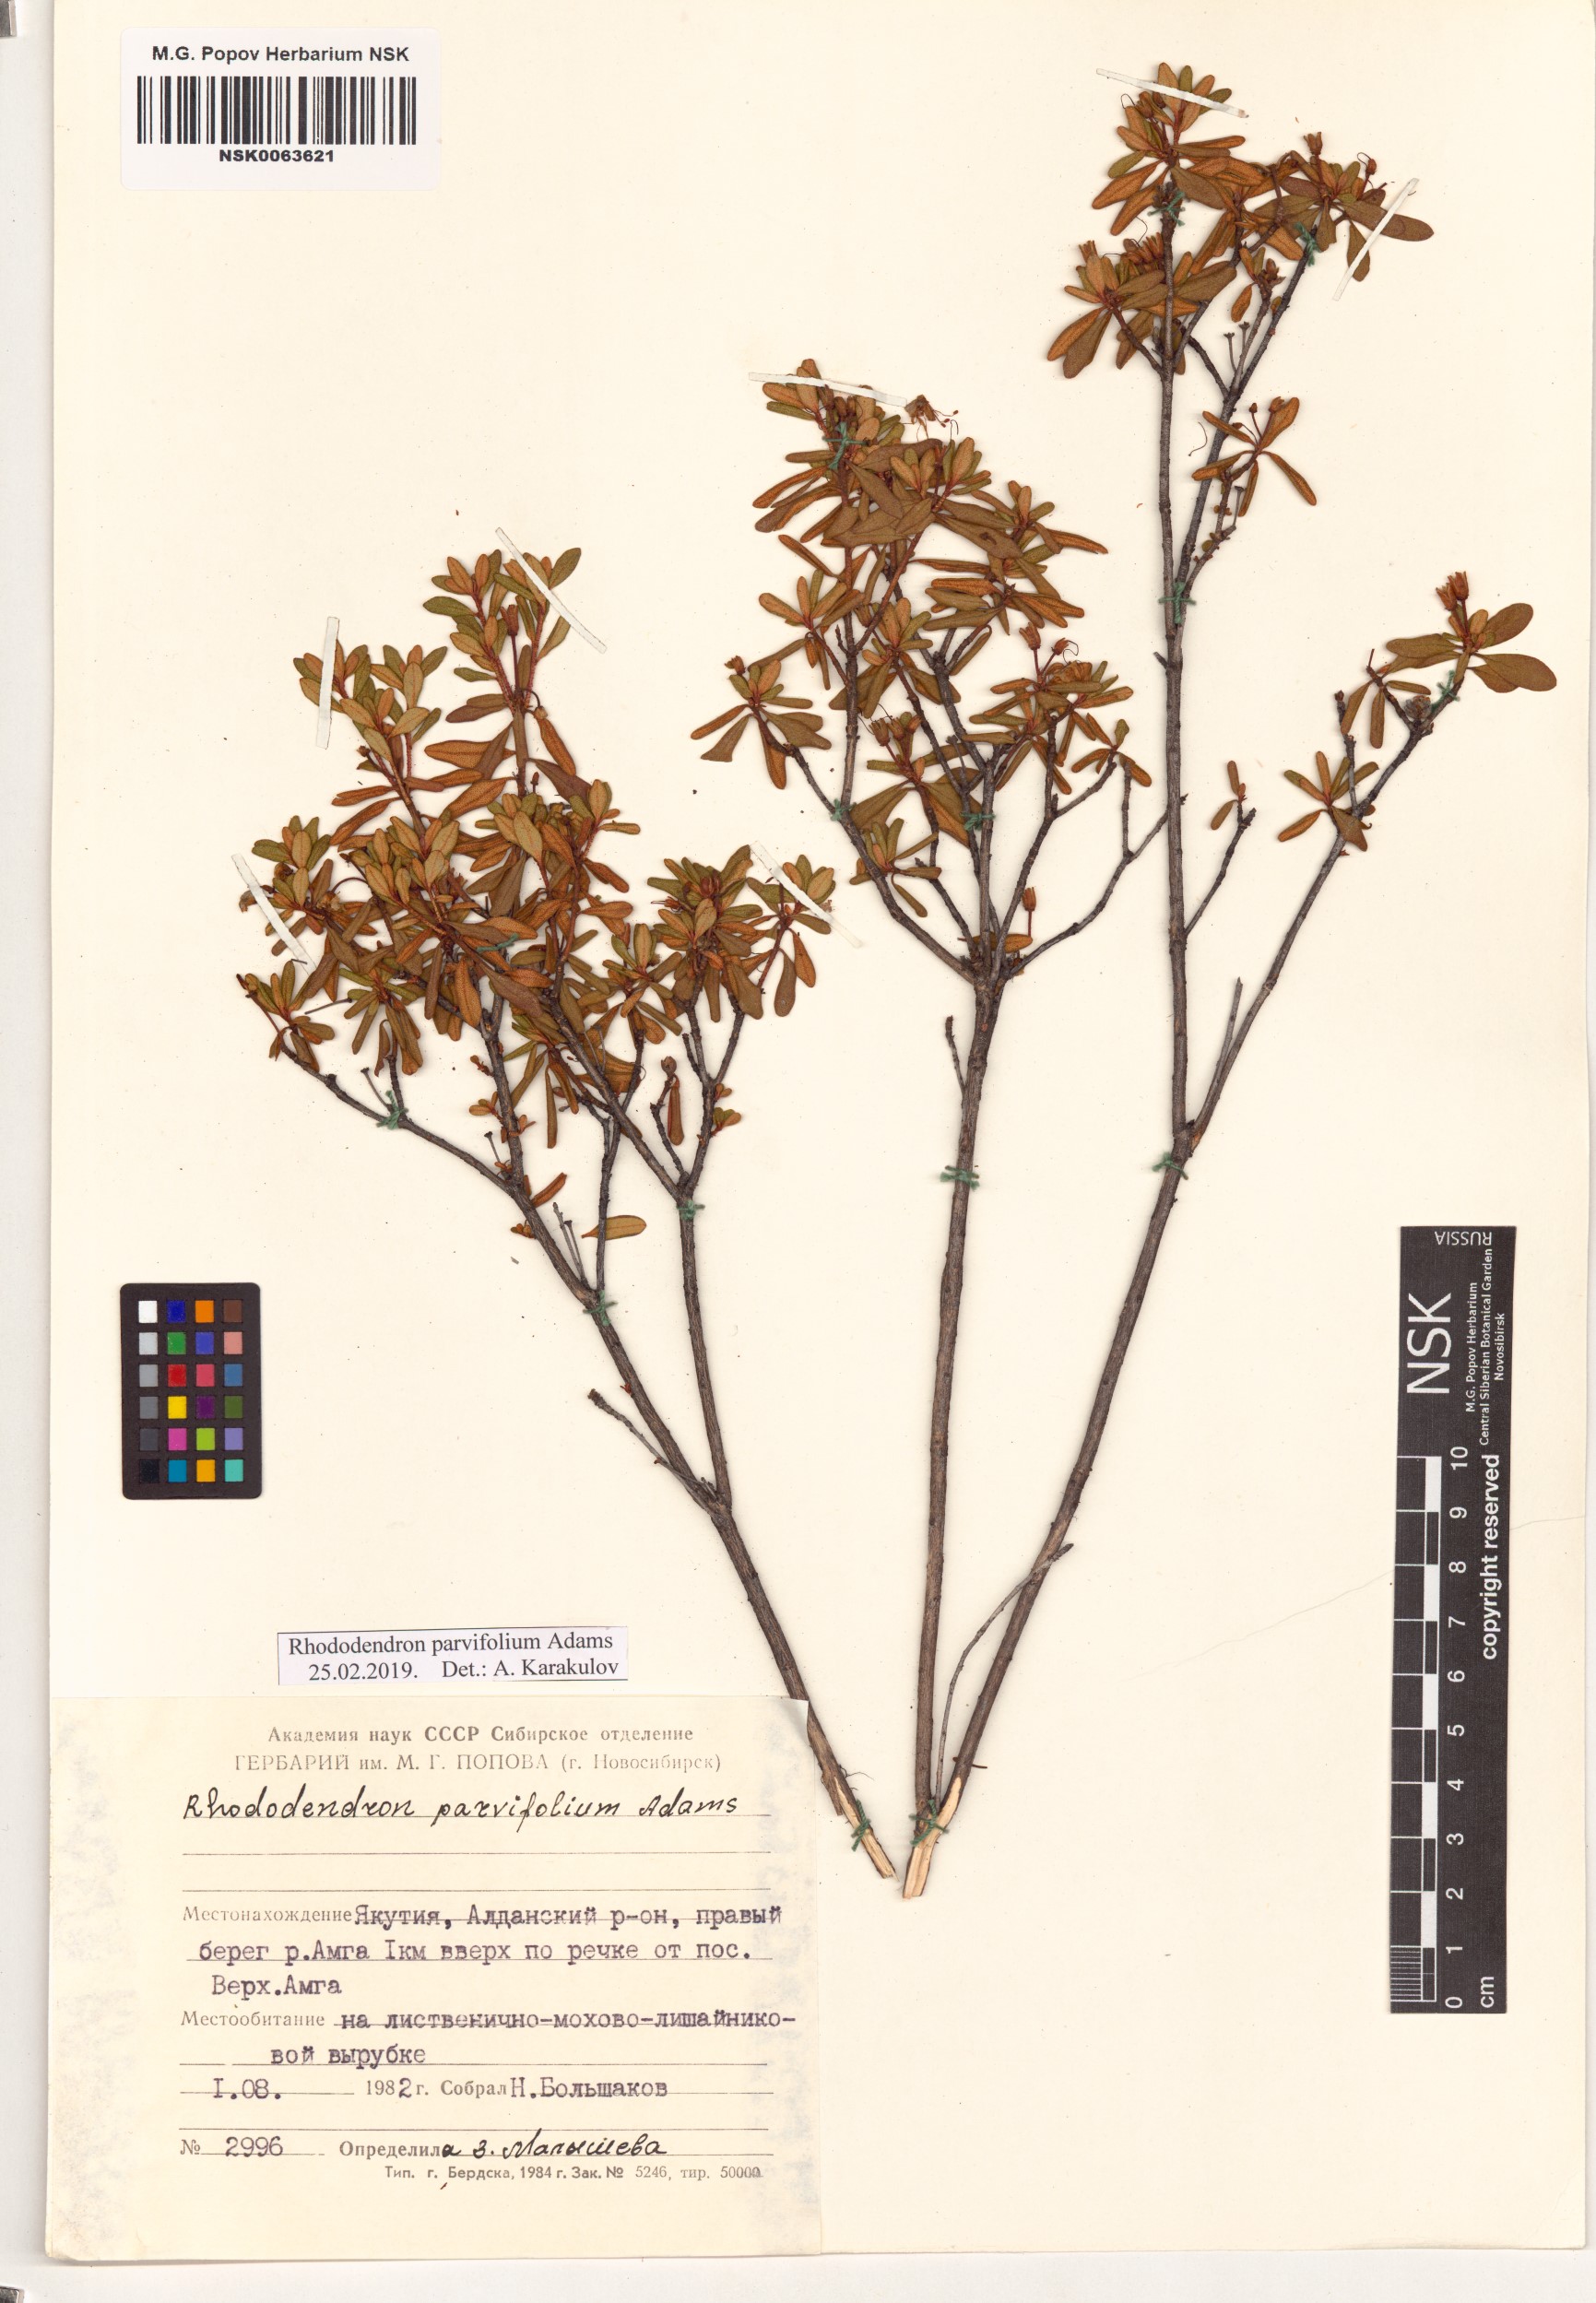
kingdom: Plantae
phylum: Tracheophyta
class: Magnoliopsida
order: Ericales
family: Ericaceae
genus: Rhododendron
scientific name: Rhododendron parvifolium
